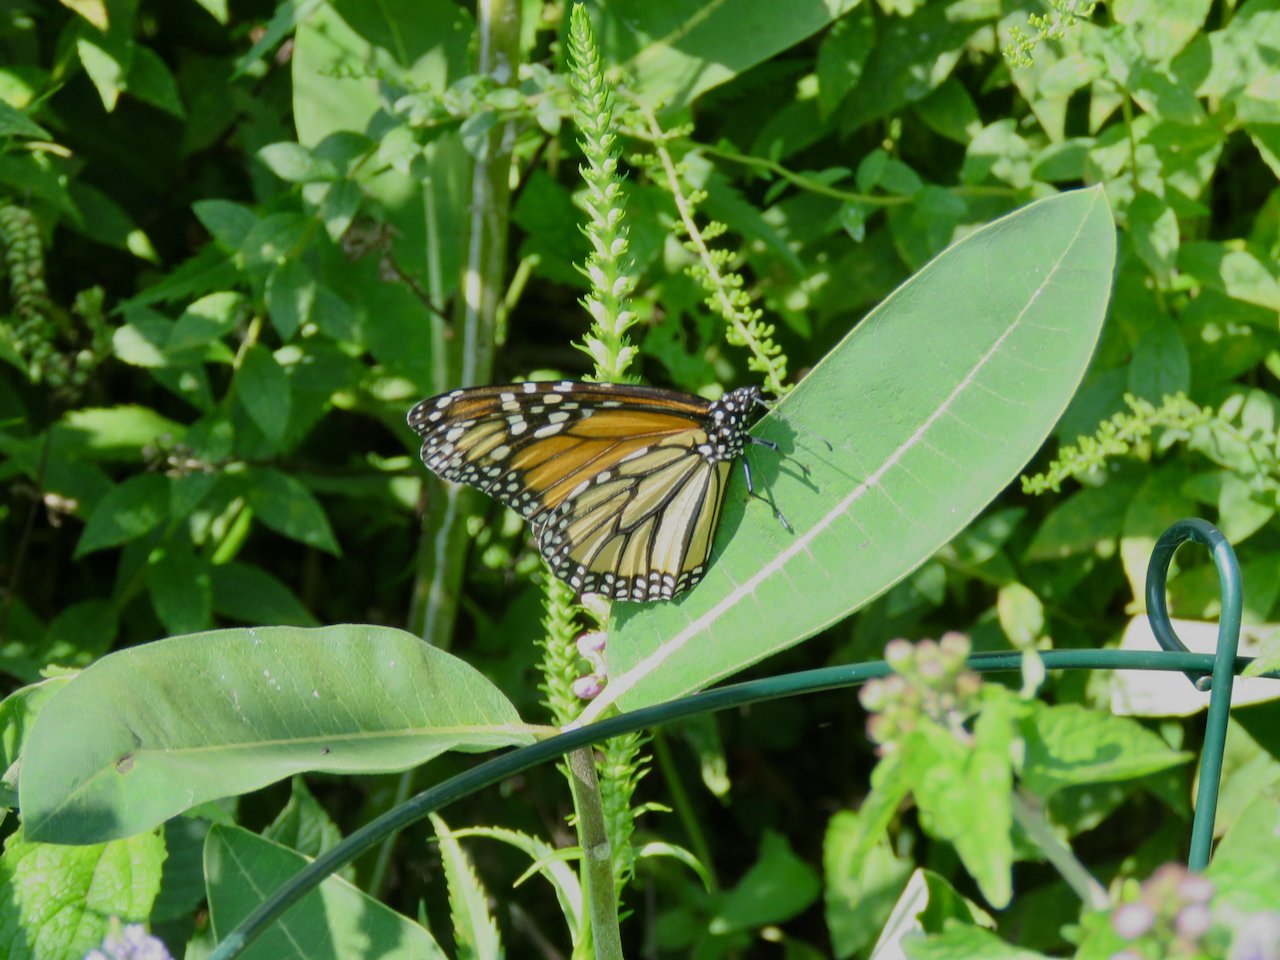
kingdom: Animalia
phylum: Arthropoda
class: Insecta
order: Lepidoptera
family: Nymphalidae
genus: Danaus
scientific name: Danaus plexippus
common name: Monarch
